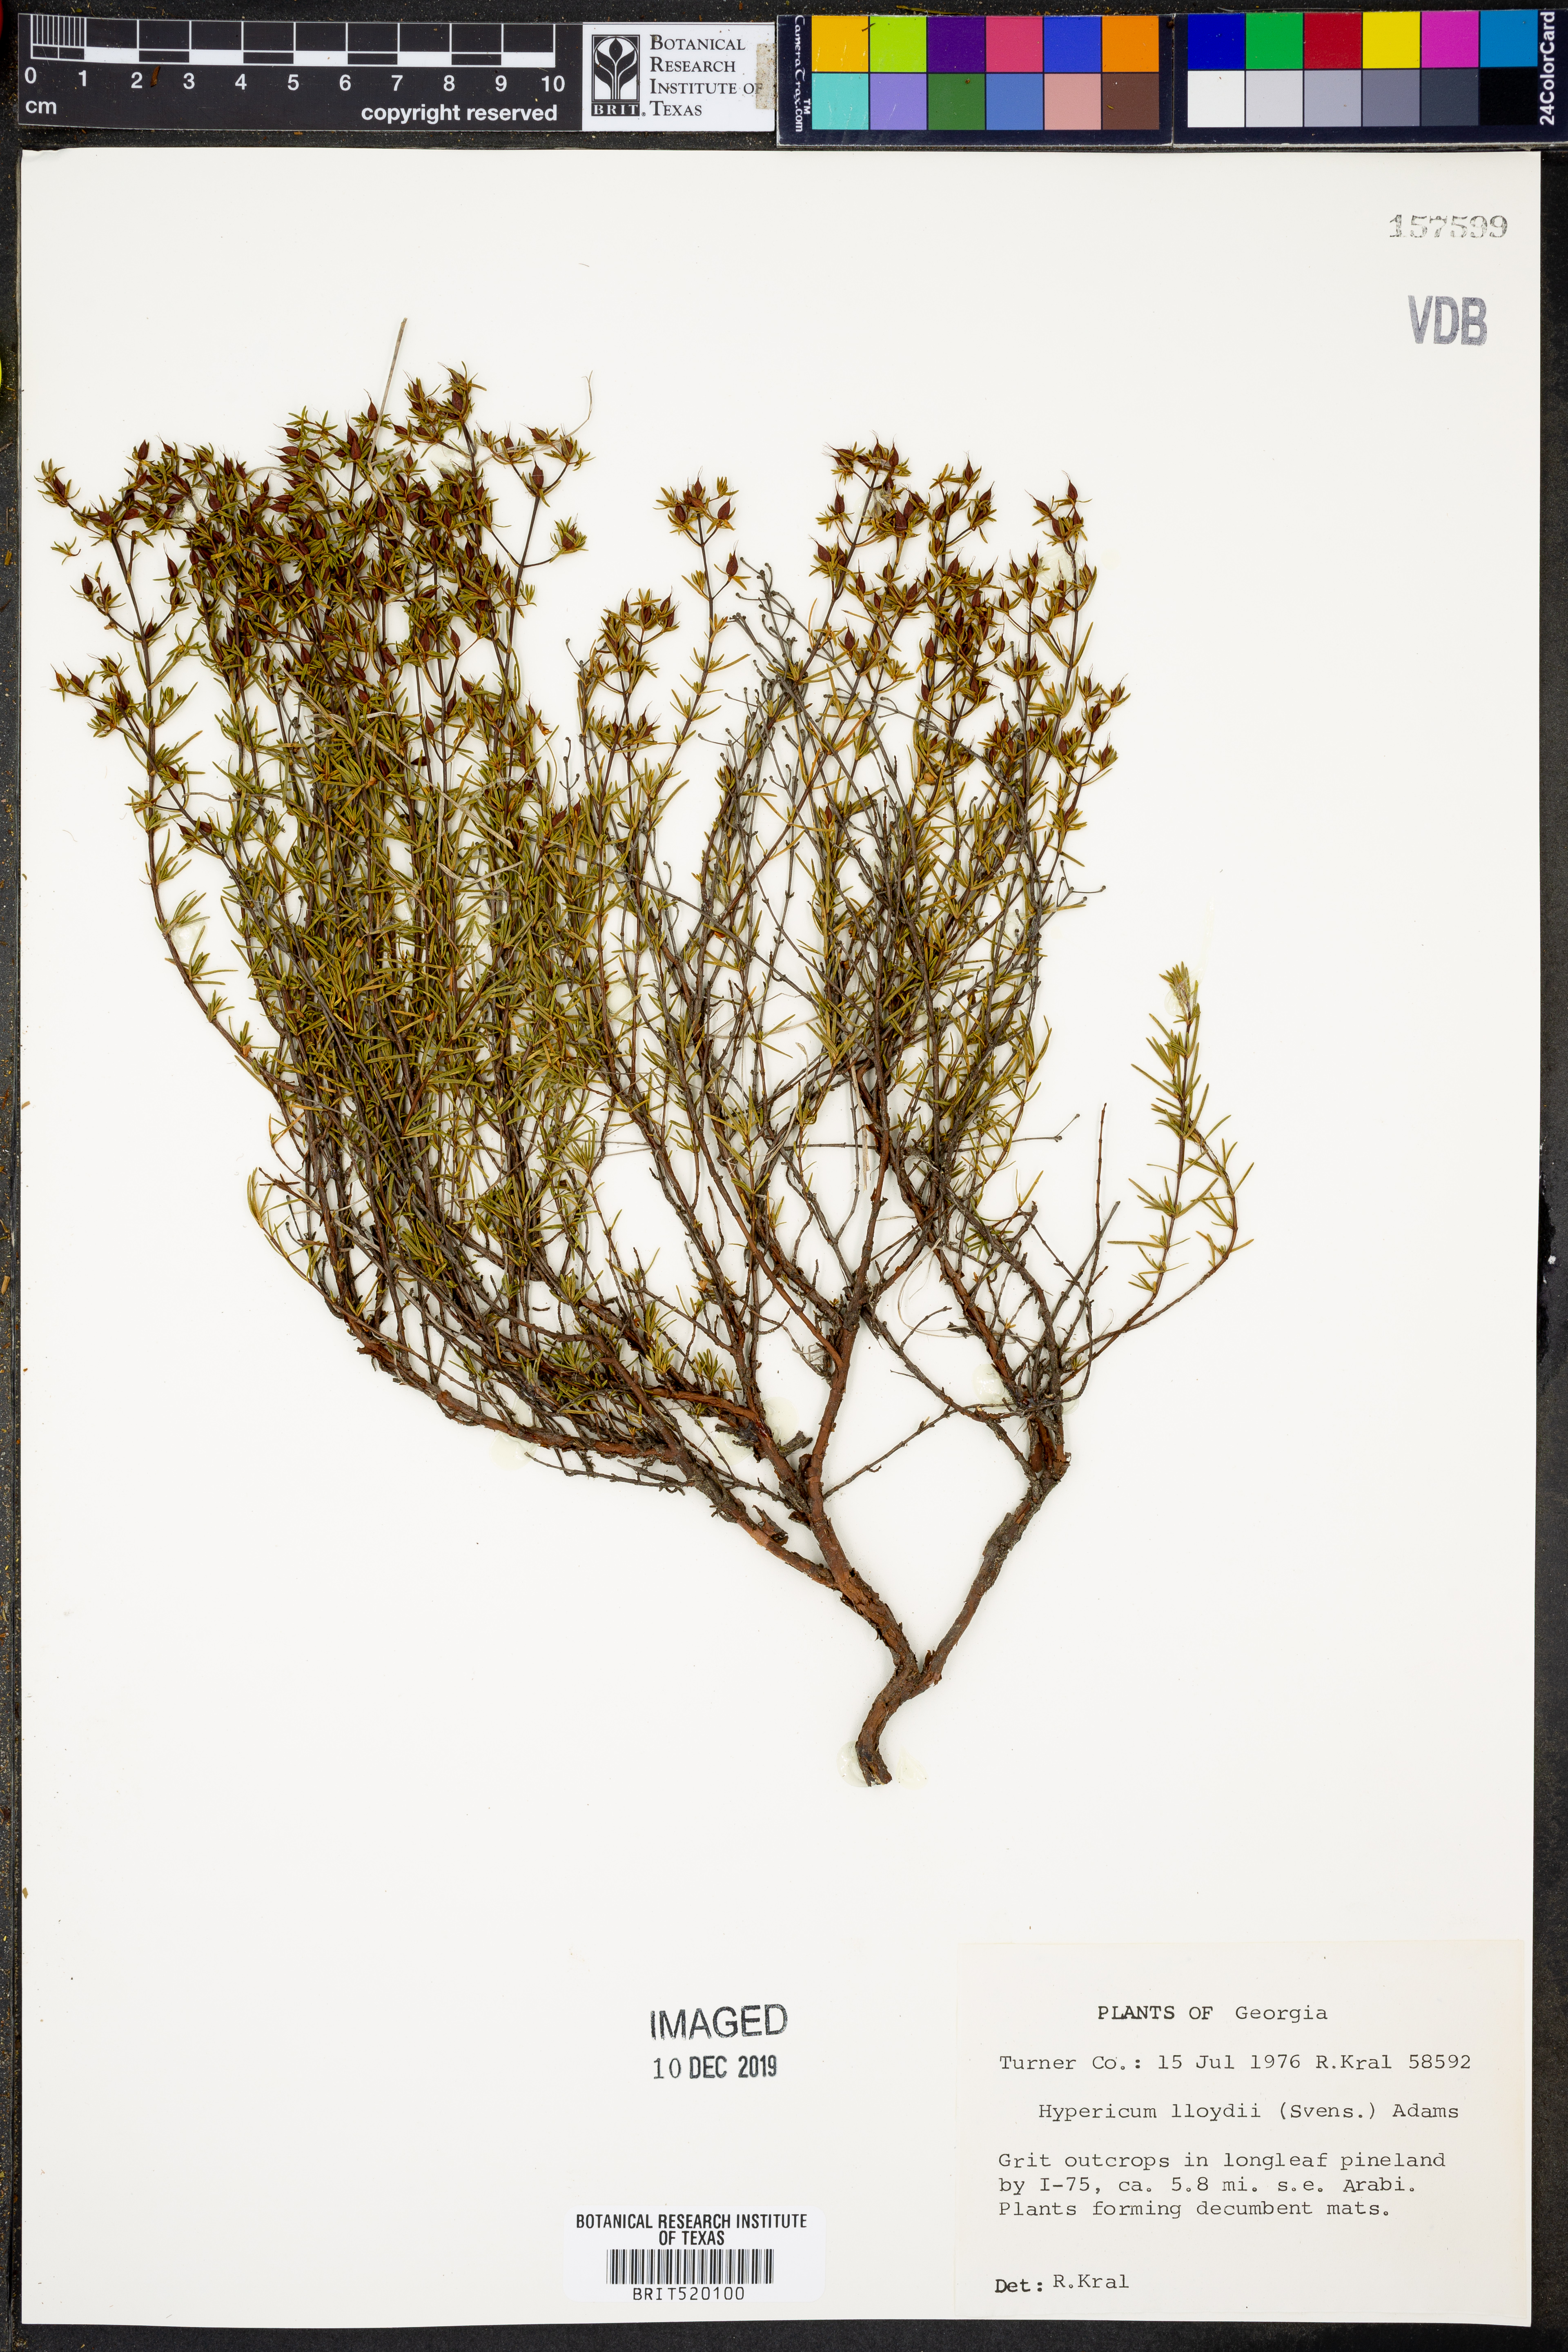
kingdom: Plantae
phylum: Tracheophyta
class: Magnoliopsida
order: Malpighiales
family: Hypericaceae
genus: Hypericum
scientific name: Hypericum lloydii
